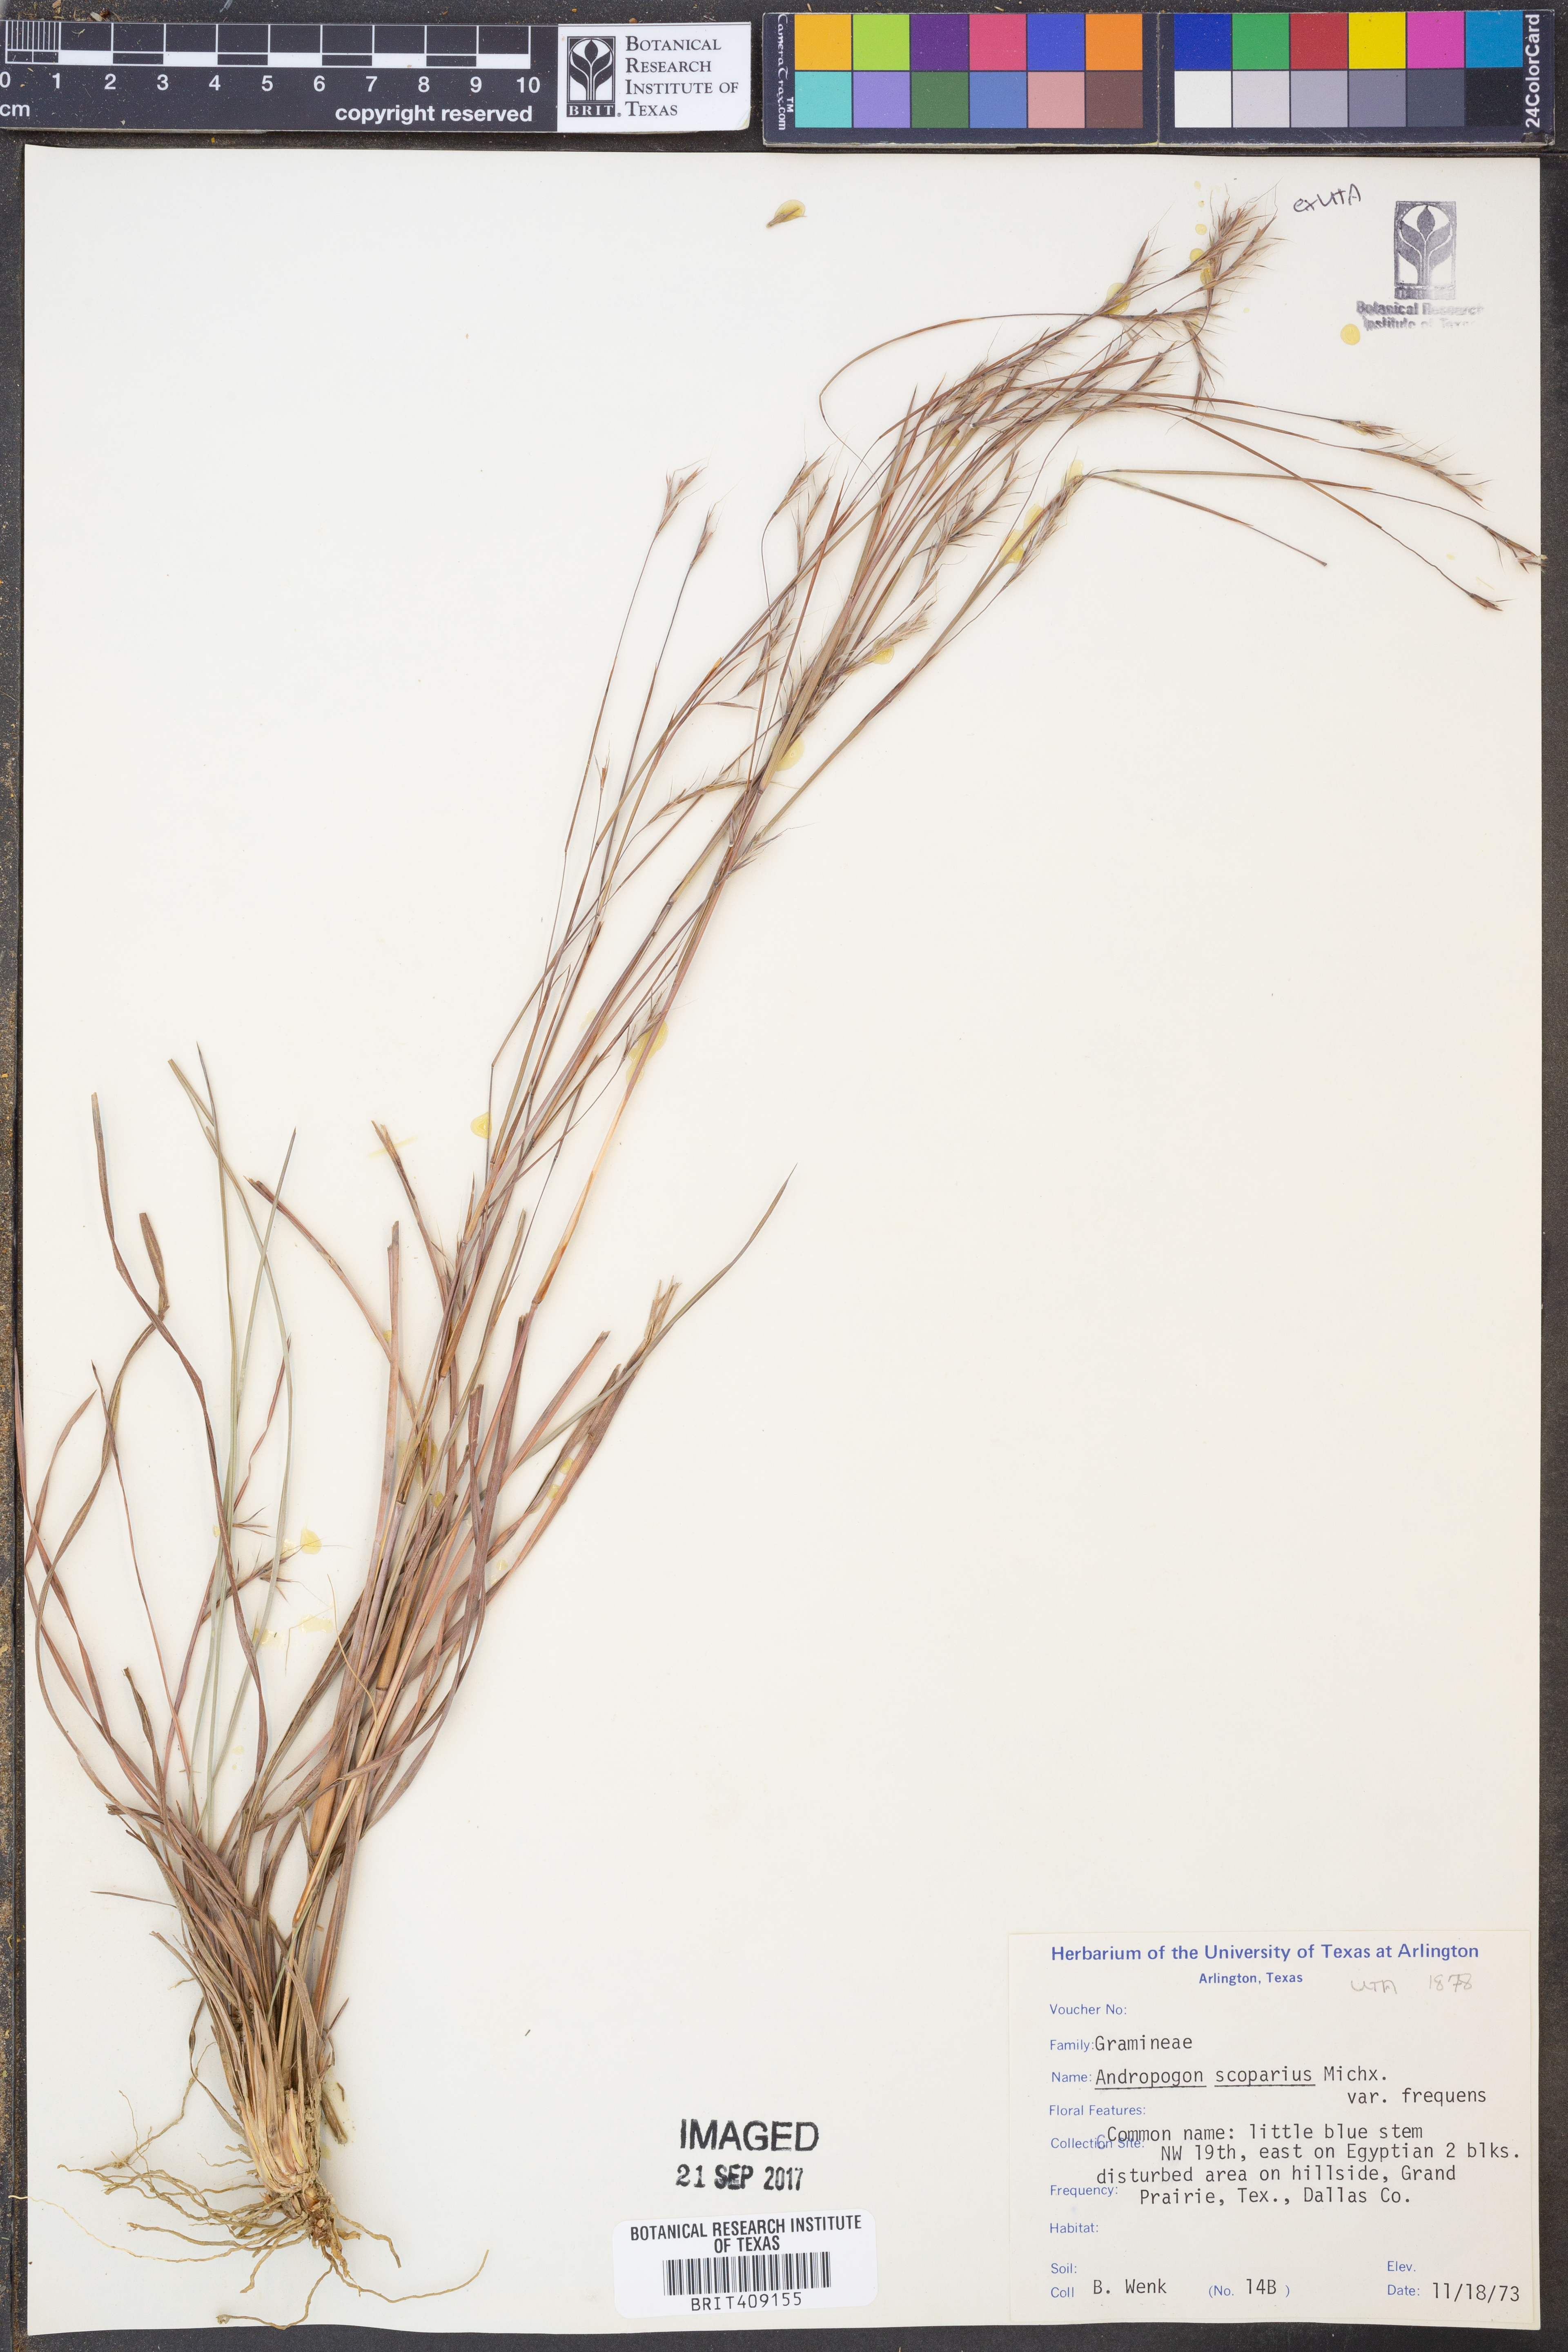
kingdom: Plantae
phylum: Tracheophyta
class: Liliopsida
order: Poales
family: Poaceae
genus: Schizachyrium
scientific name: Schizachyrium scoparium
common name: Little bluestem
